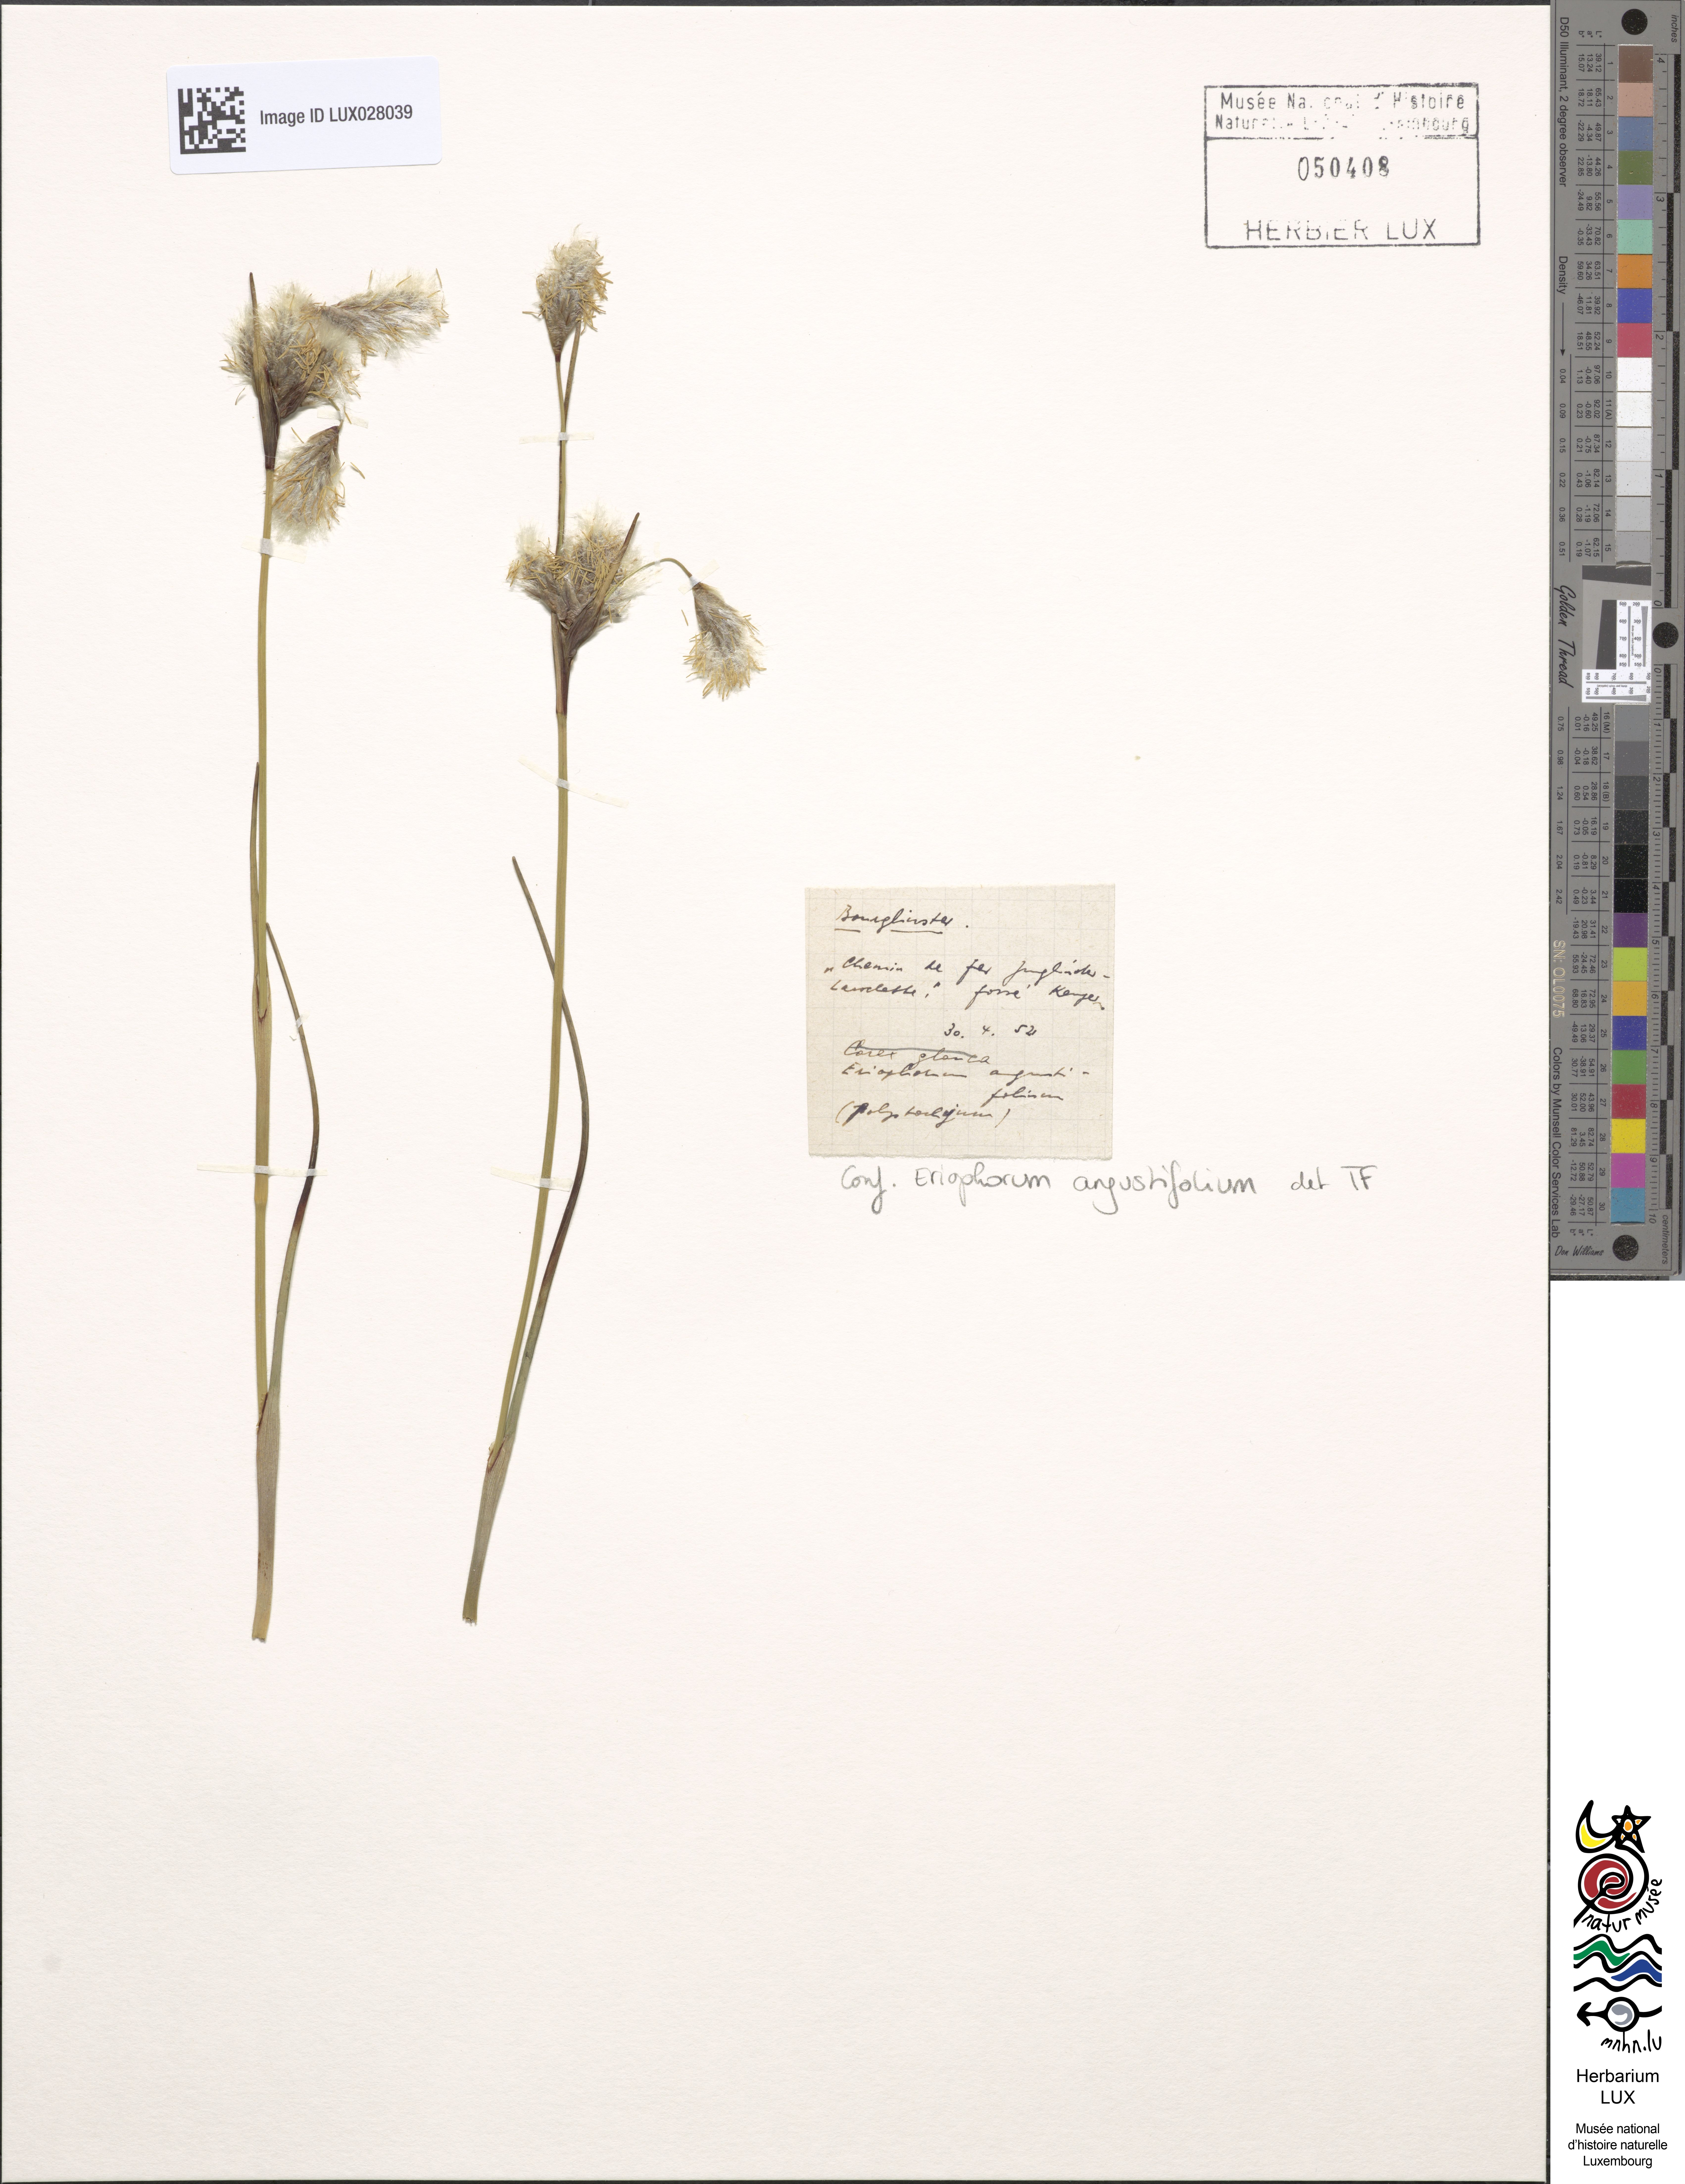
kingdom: Plantae
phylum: Tracheophyta
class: Liliopsida
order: Poales
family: Cyperaceae
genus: Eriophorum
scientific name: Eriophorum angustifolium
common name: Common cottongrass
